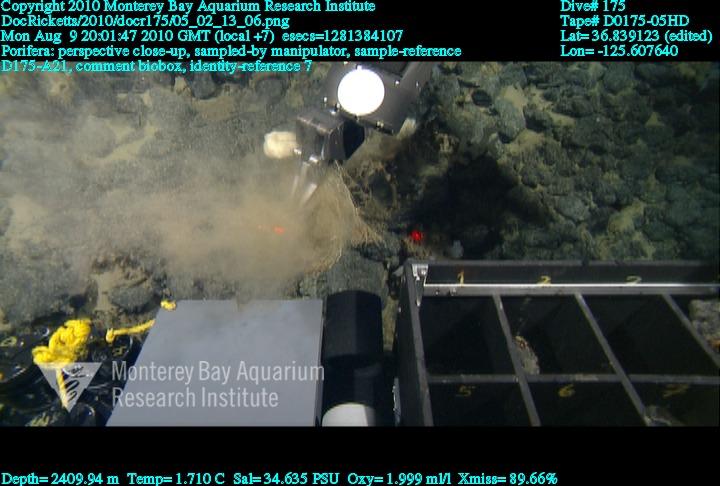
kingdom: Animalia
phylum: Porifera
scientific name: Porifera
